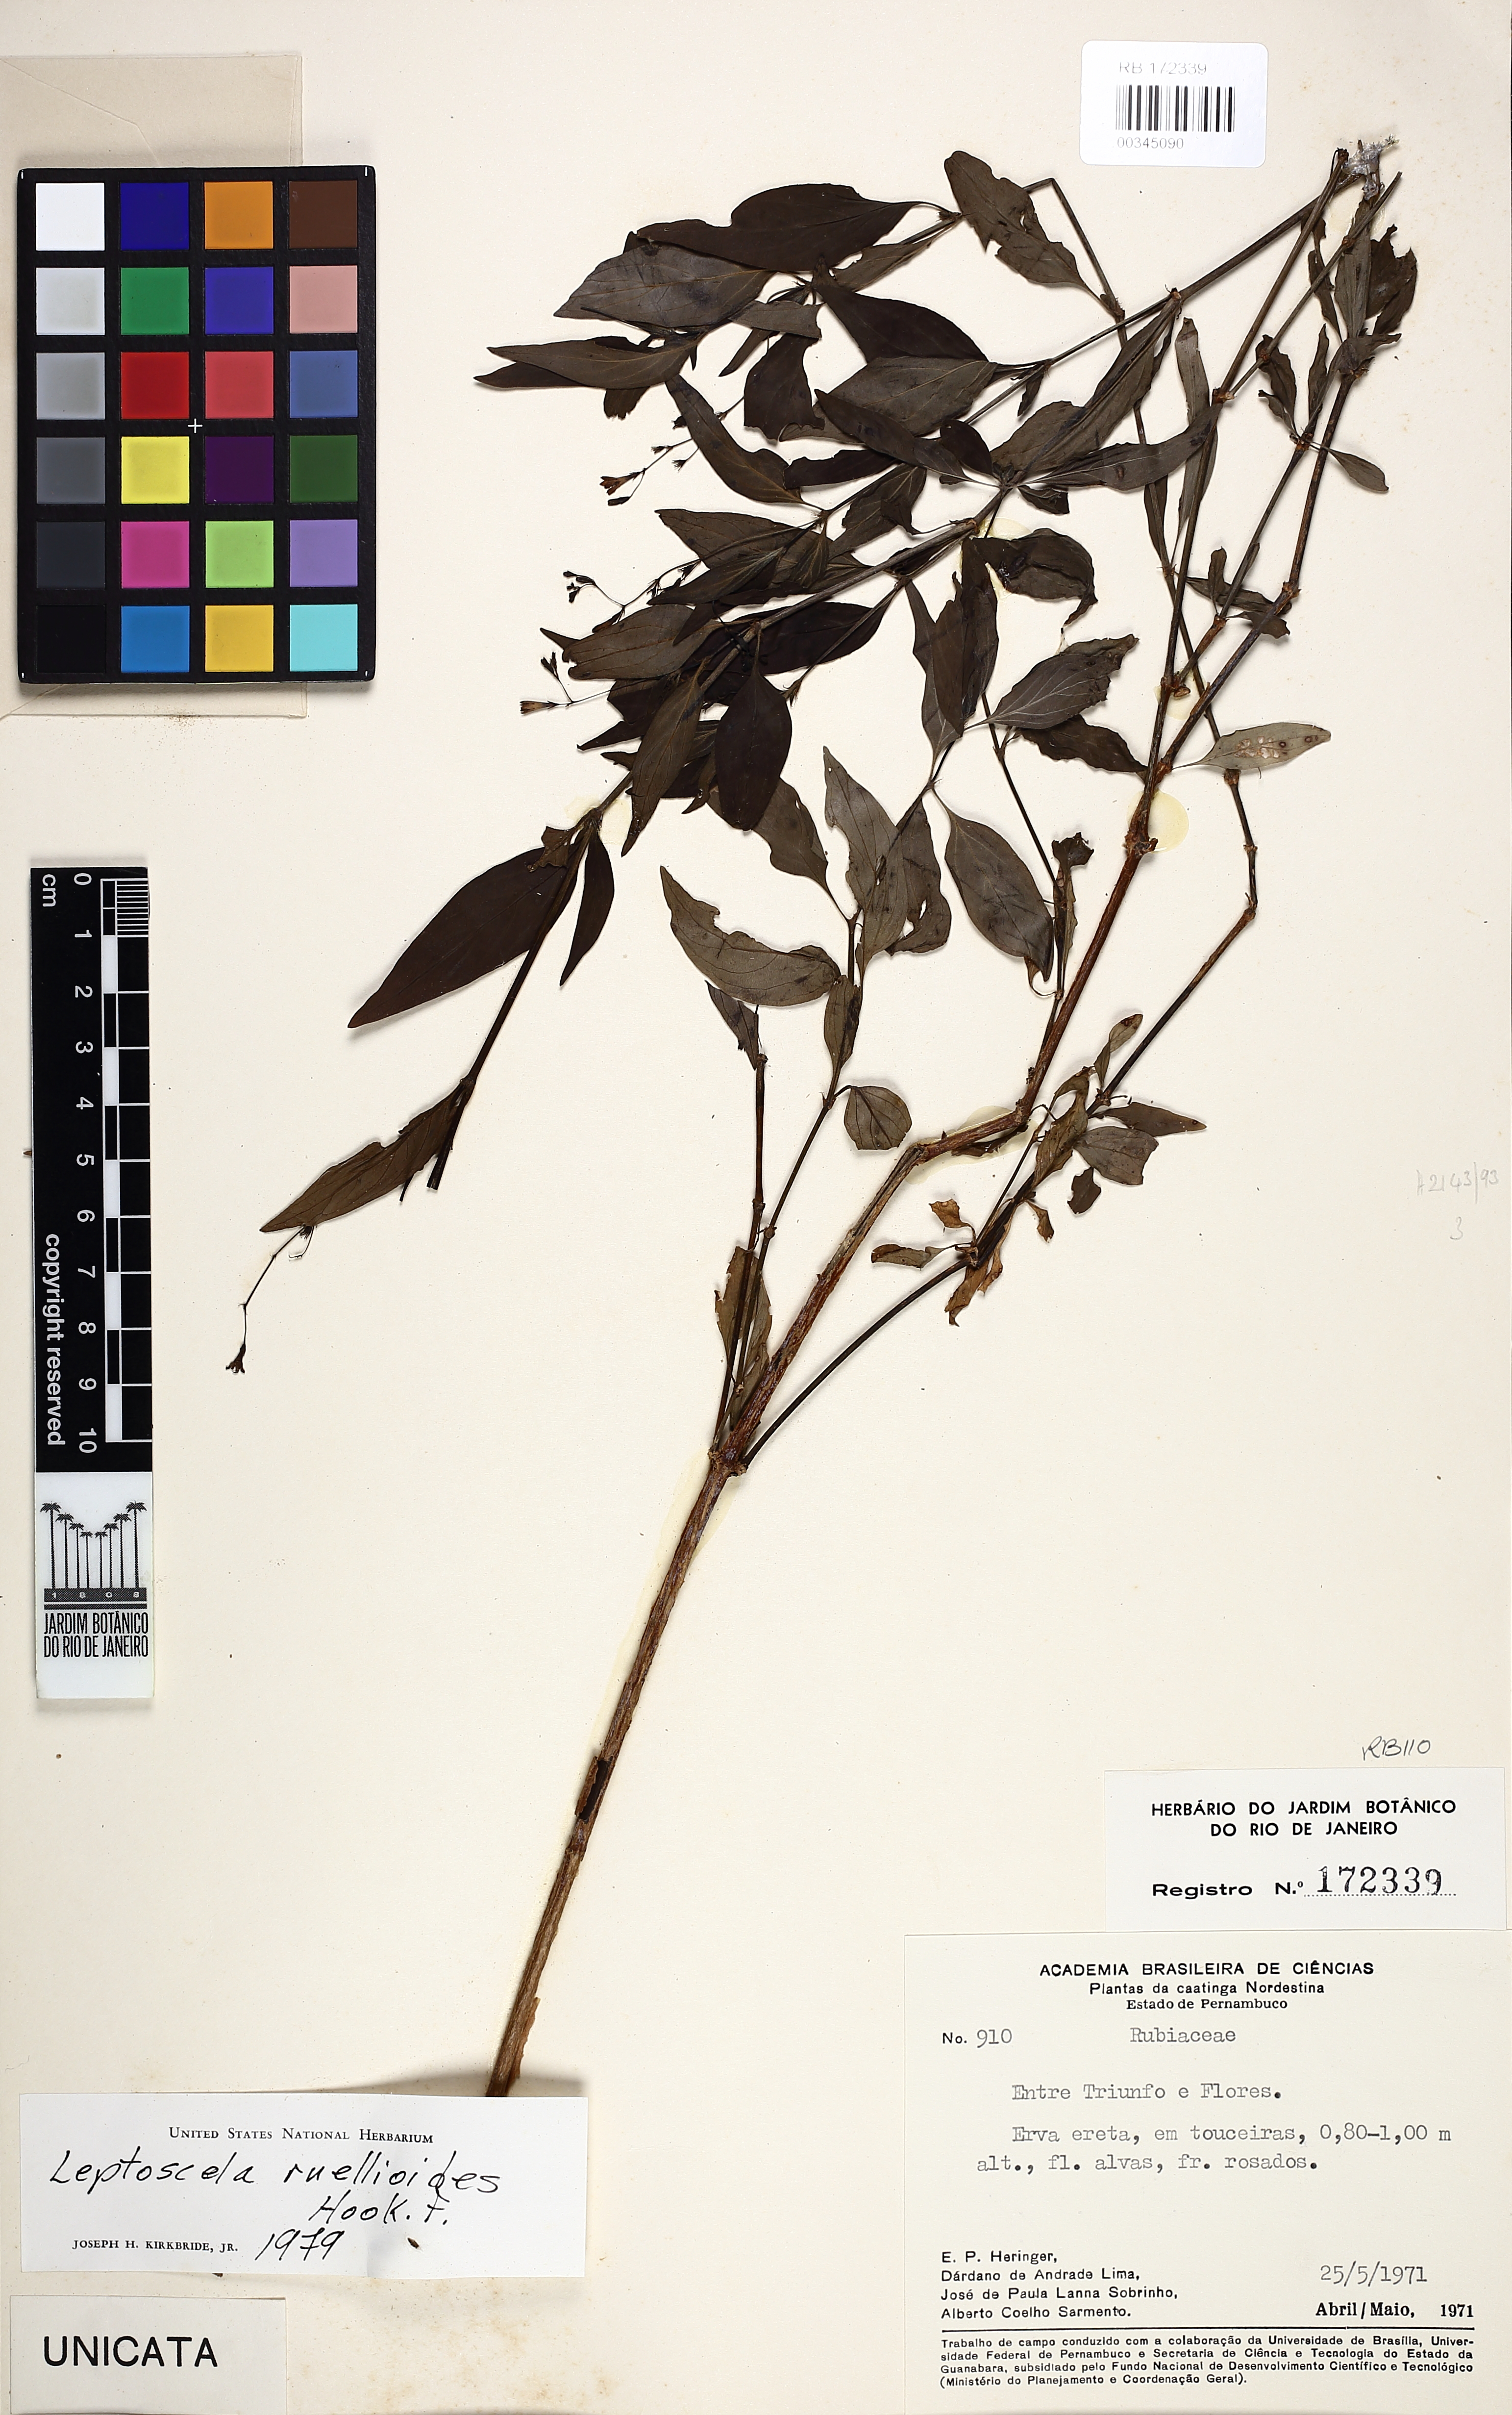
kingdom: Plantae
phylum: Tracheophyta
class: Magnoliopsida
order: Gentianales
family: Rubiaceae
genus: Leptoscela
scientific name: Leptoscela ruellioides
